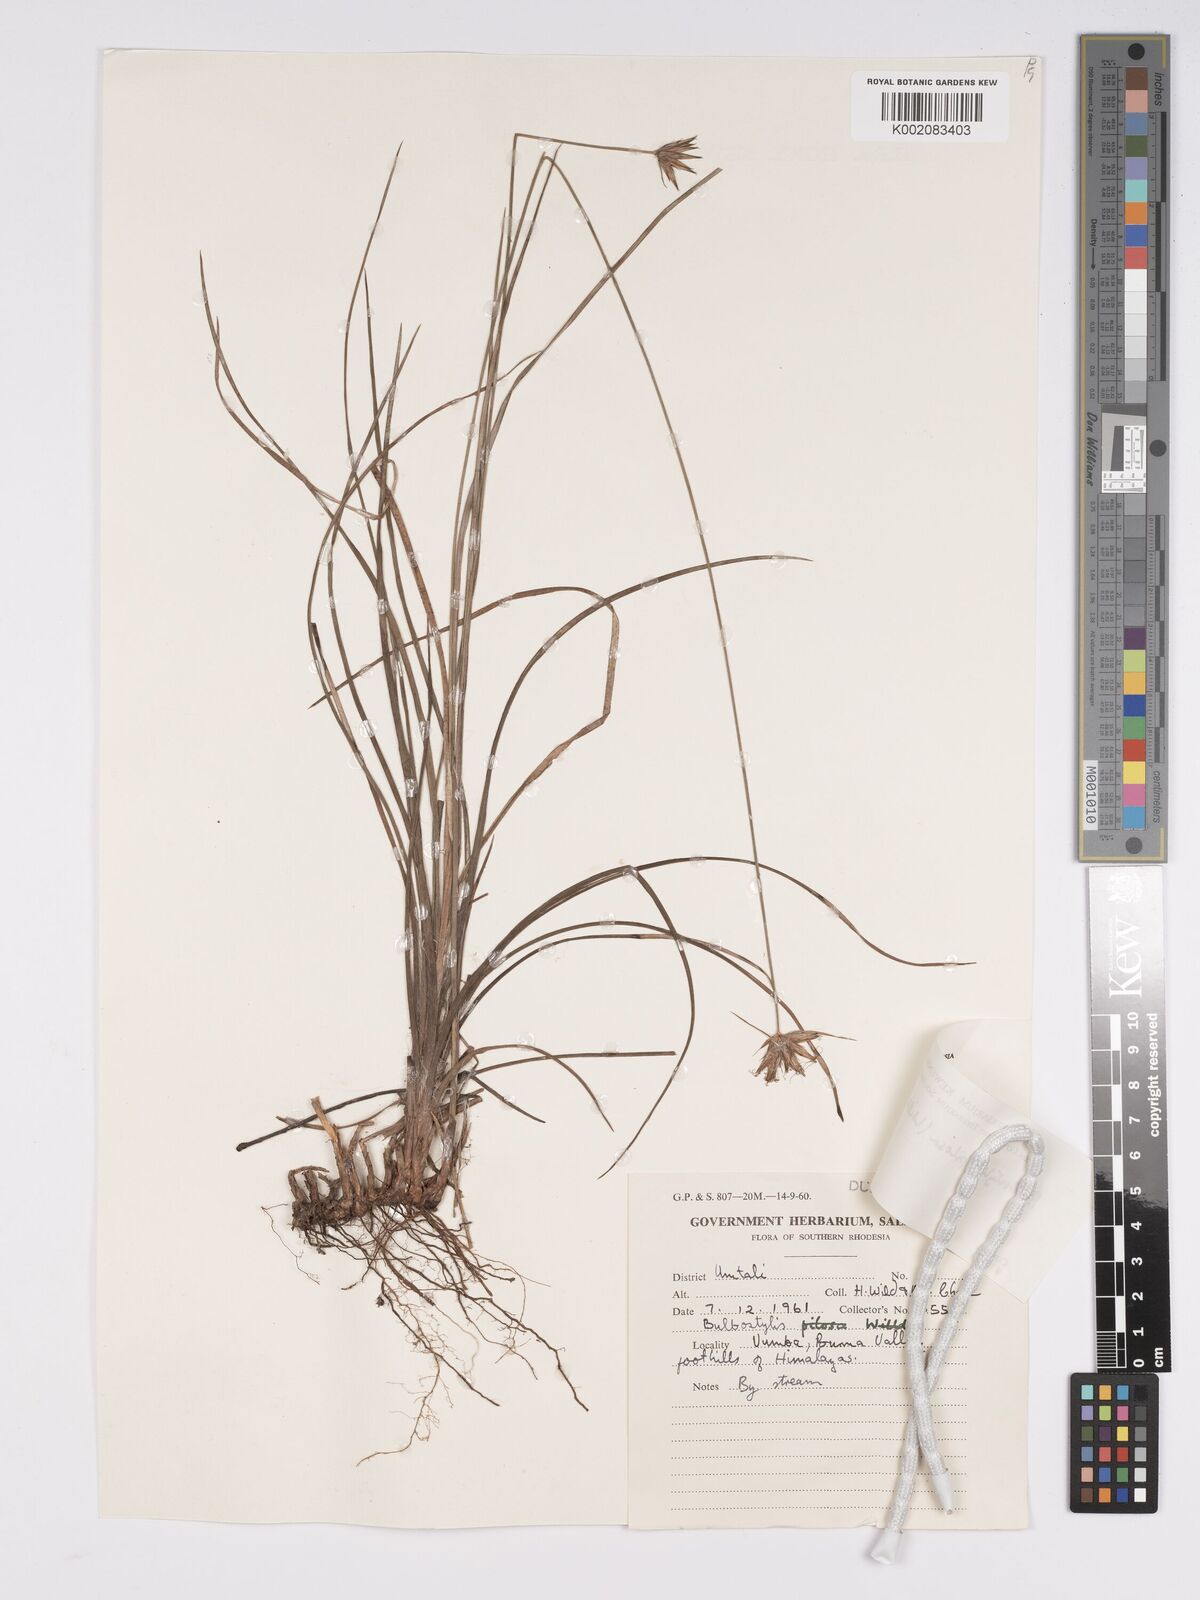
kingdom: Plantae
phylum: Tracheophyta
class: Liliopsida
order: Poales
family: Cyperaceae
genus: Bulbostylis
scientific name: Bulbostylis pilosa
